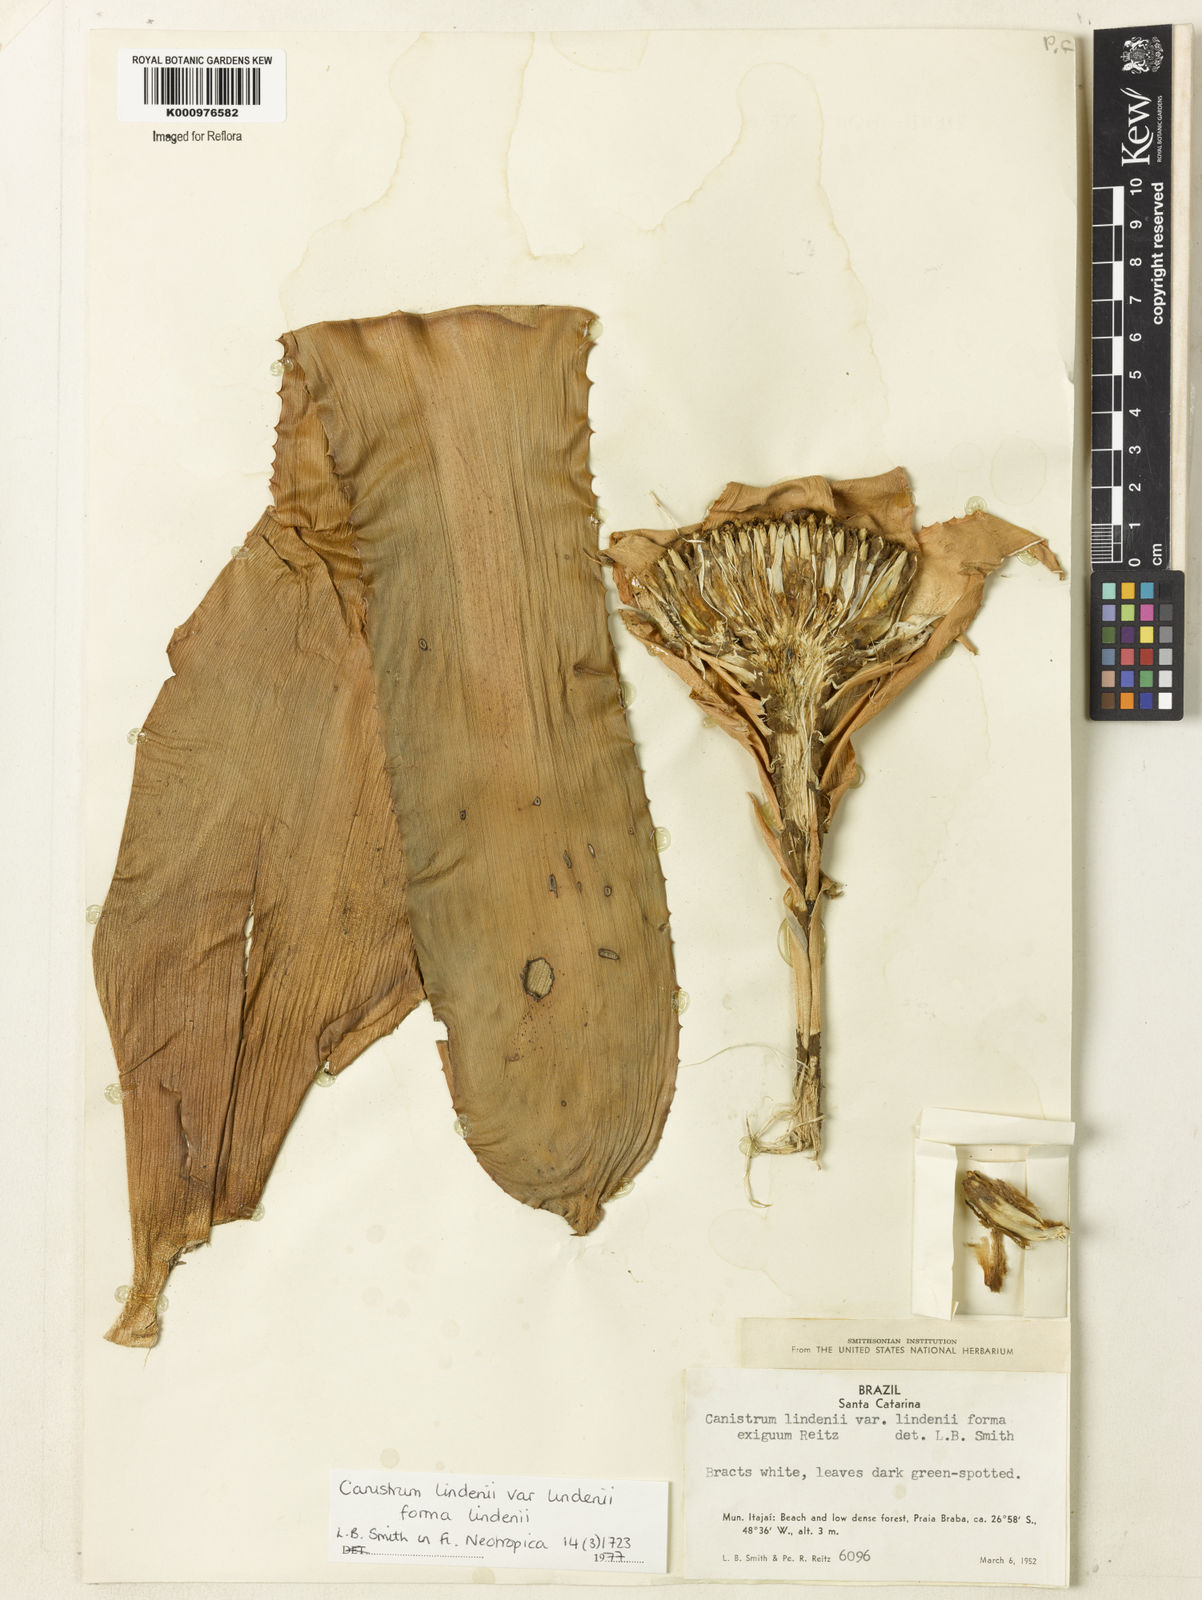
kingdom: Plantae
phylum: Tracheophyta
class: Liliopsida
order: Poales
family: Bromeliaceae
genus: Hohenbergia
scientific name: Hohenbergia augusta
